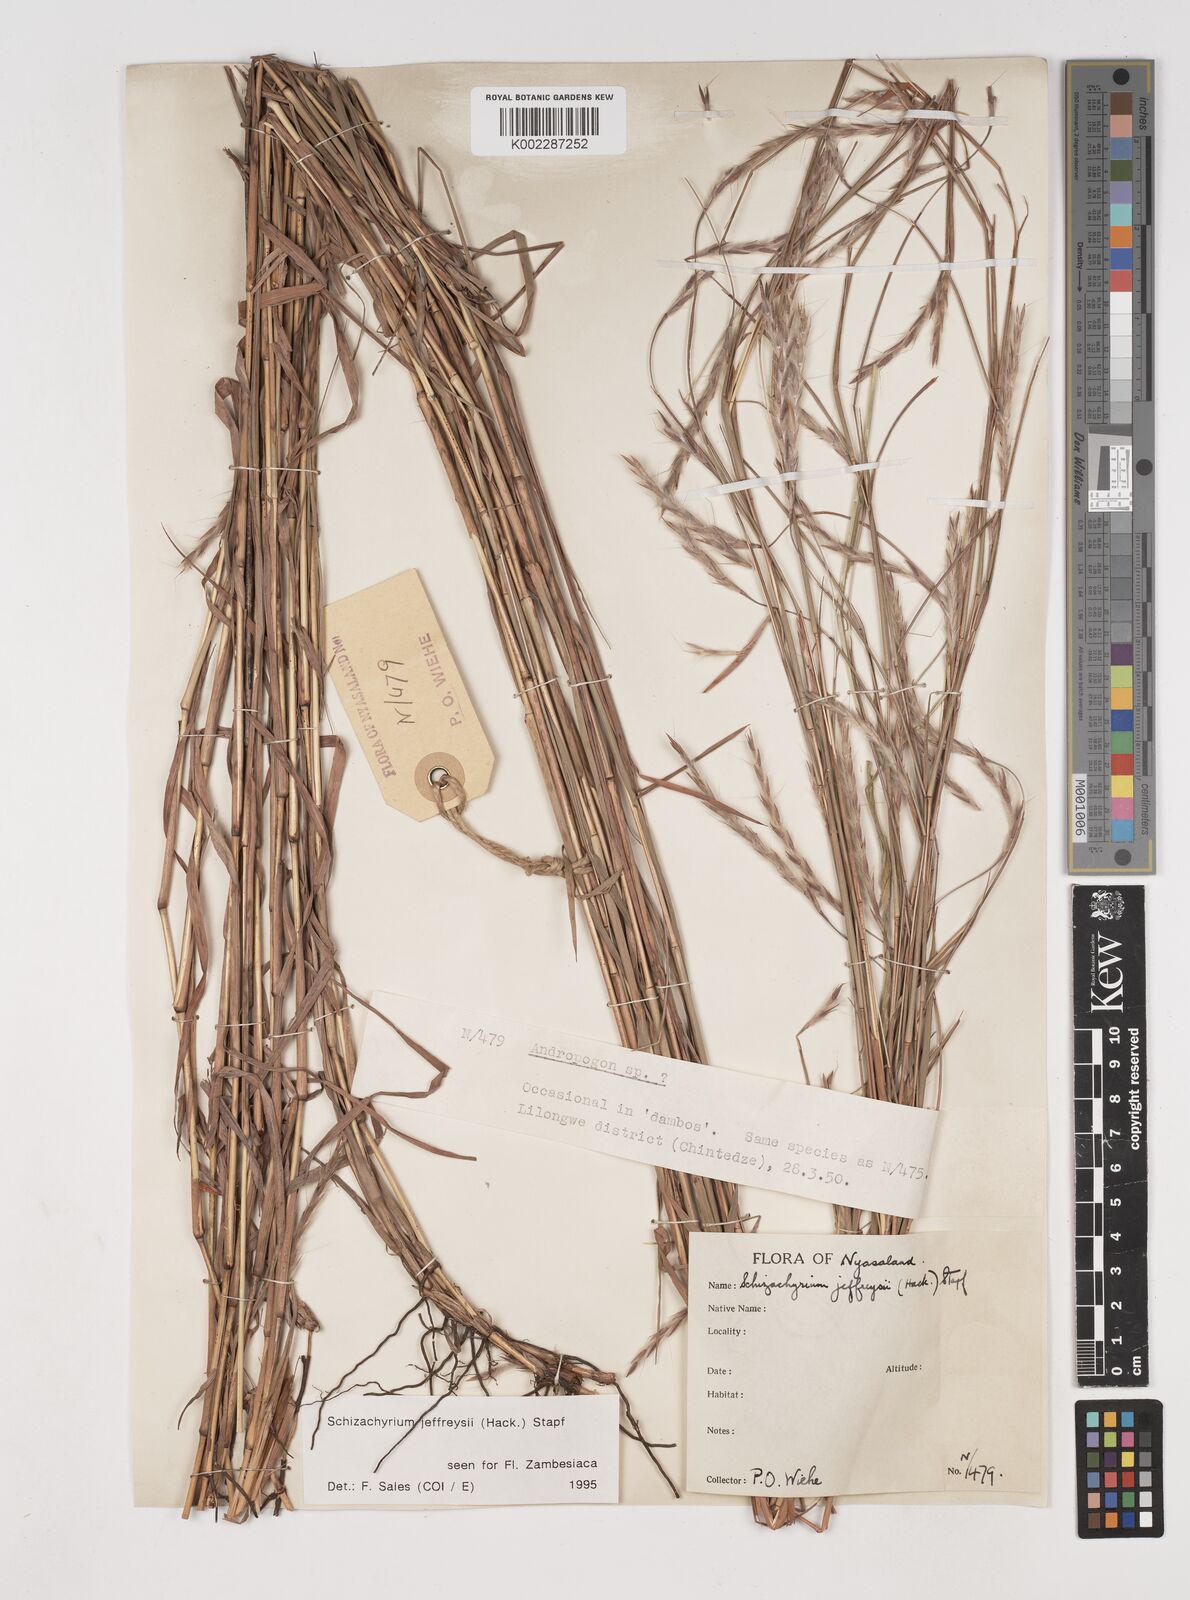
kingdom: Plantae
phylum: Tracheophyta
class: Liliopsida
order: Poales
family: Poaceae
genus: Schizachyrium
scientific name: Schizachyrium jeffreysii
